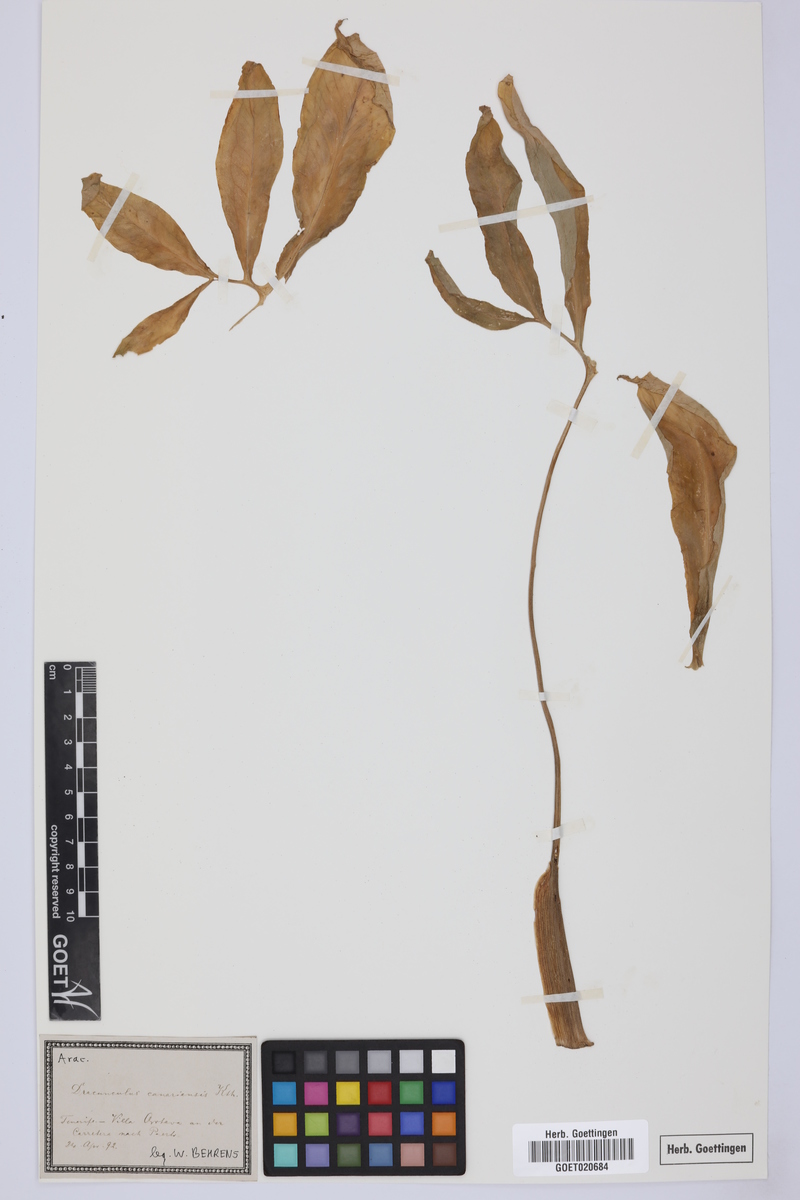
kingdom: Plantae
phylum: Tracheophyta
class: Liliopsida
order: Alismatales
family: Araceae
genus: Dracunculus
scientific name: Dracunculus canariensis
